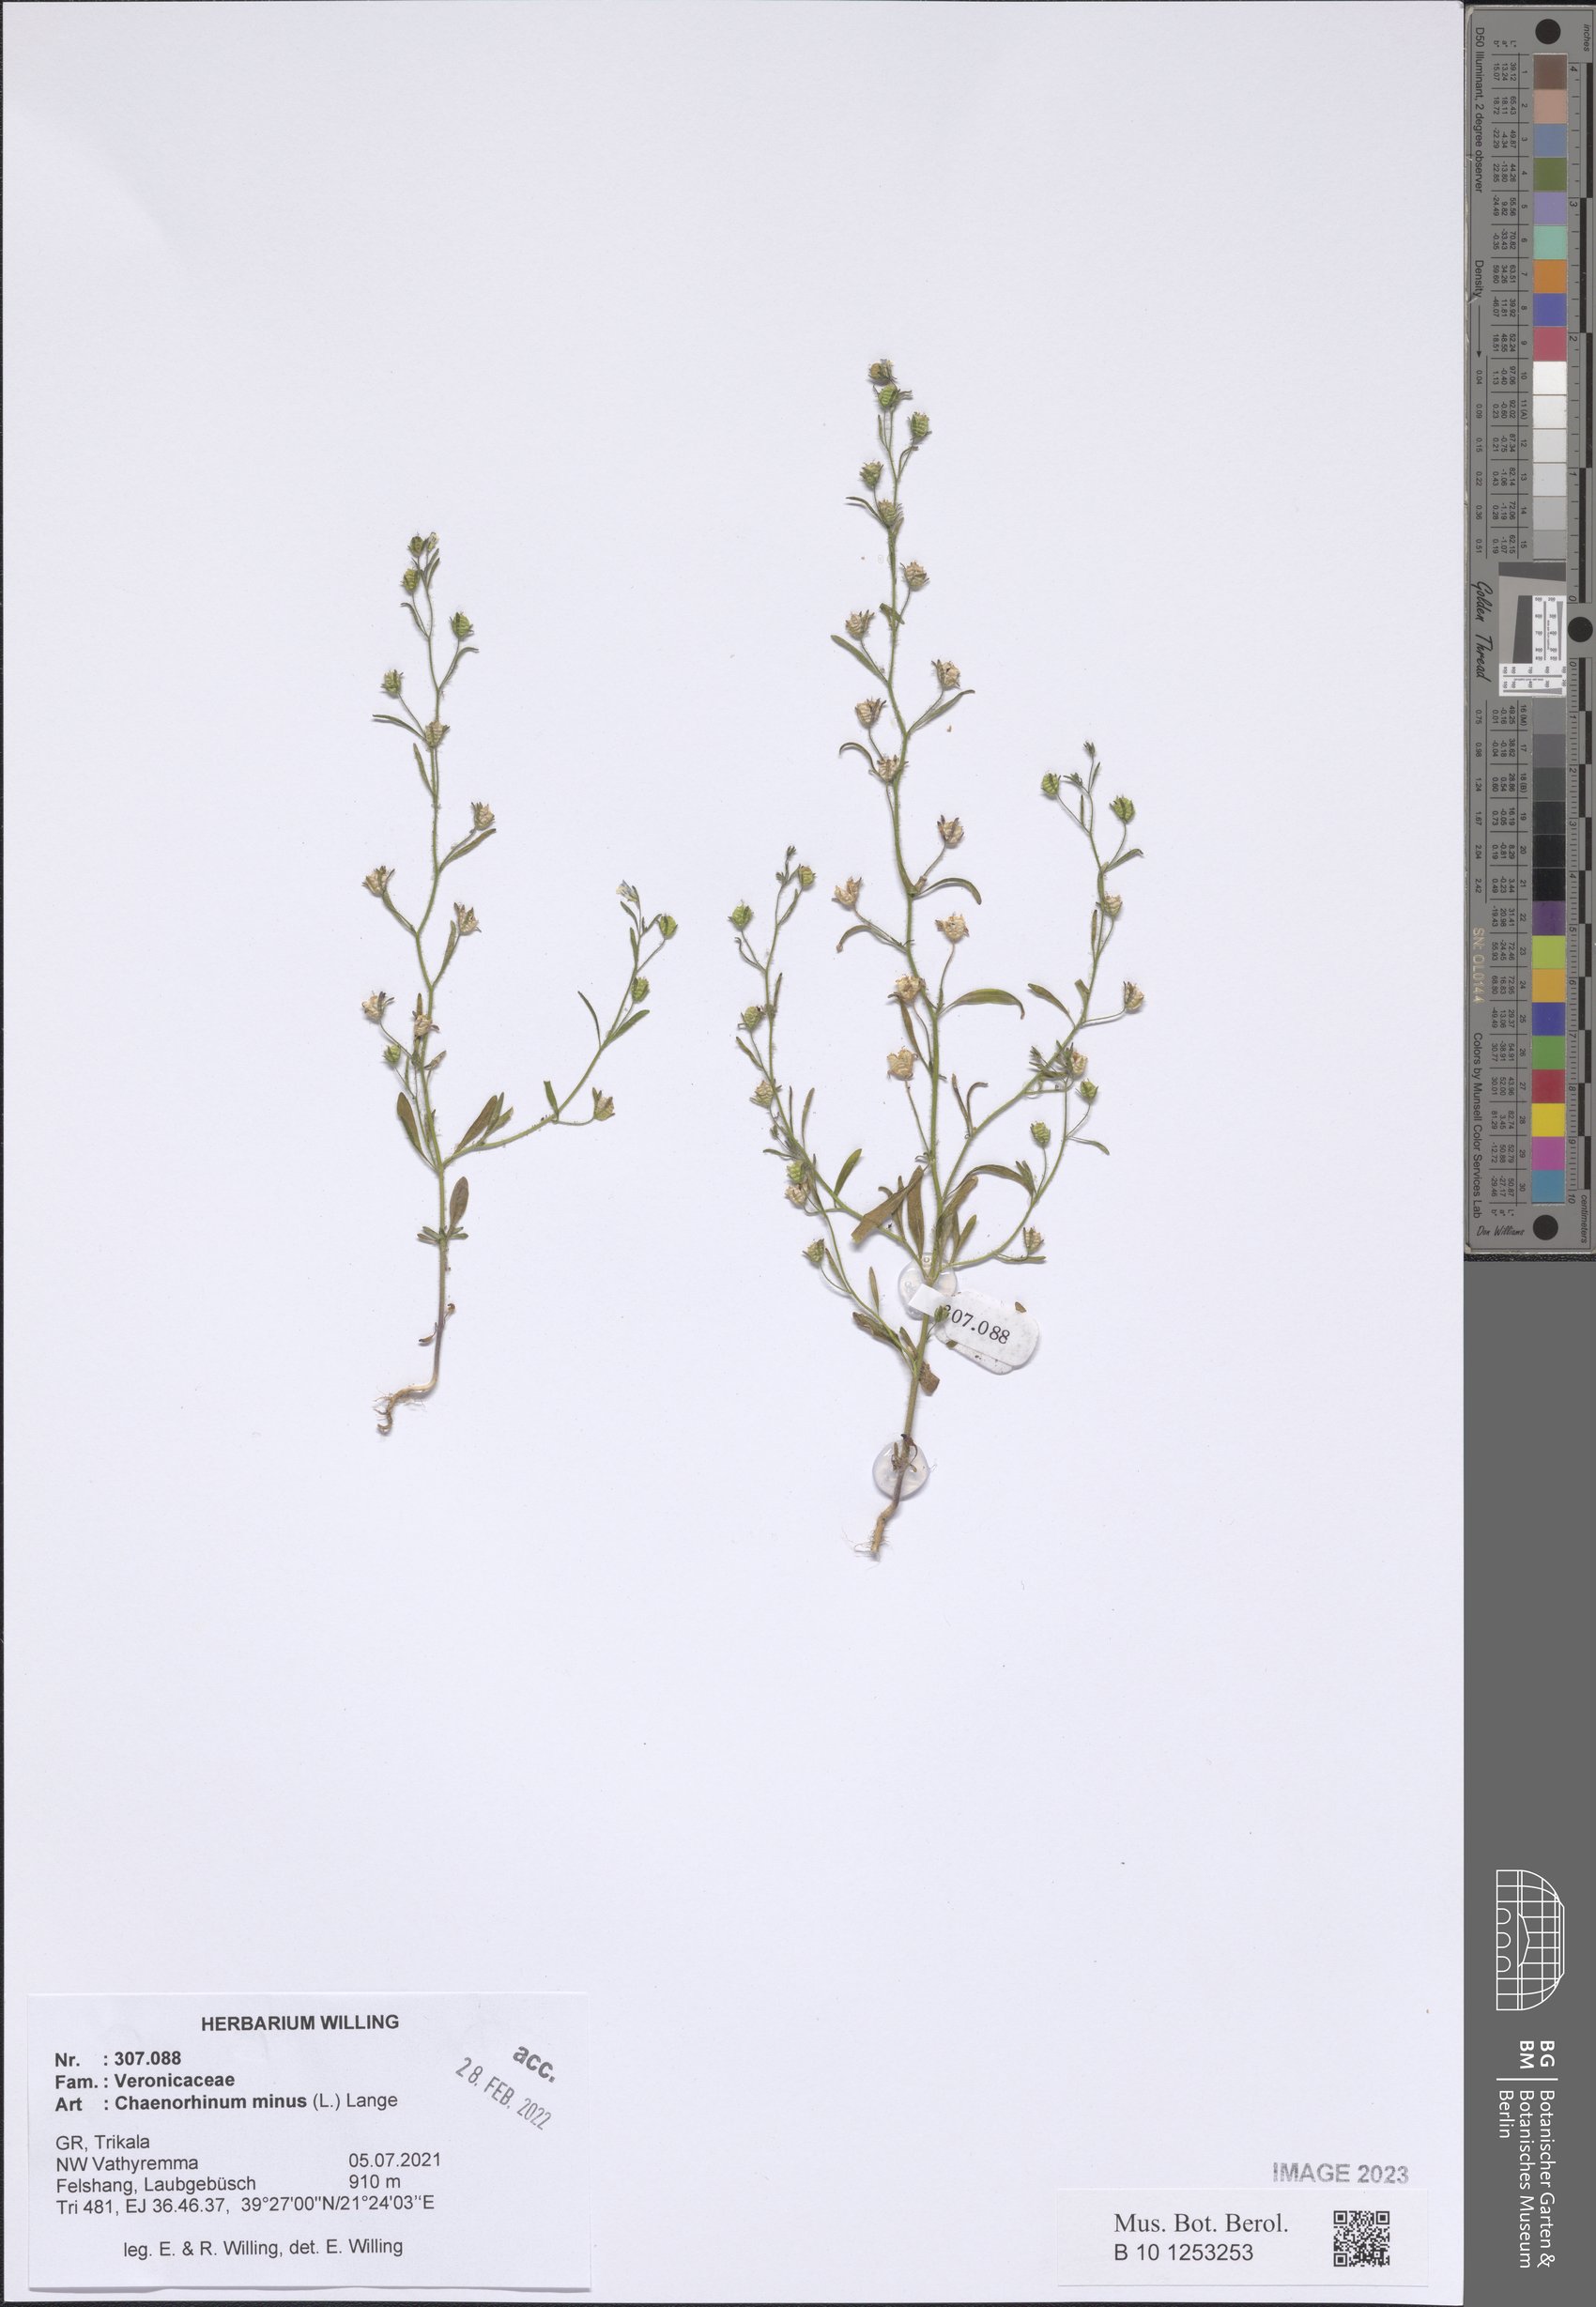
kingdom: Plantae
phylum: Tracheophyta
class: Magnoliopsida
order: Lamiales
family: Plantaginaceae
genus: Chaenorhinum
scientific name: Chaenorhinum minus
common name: Dwarf snapdragon
